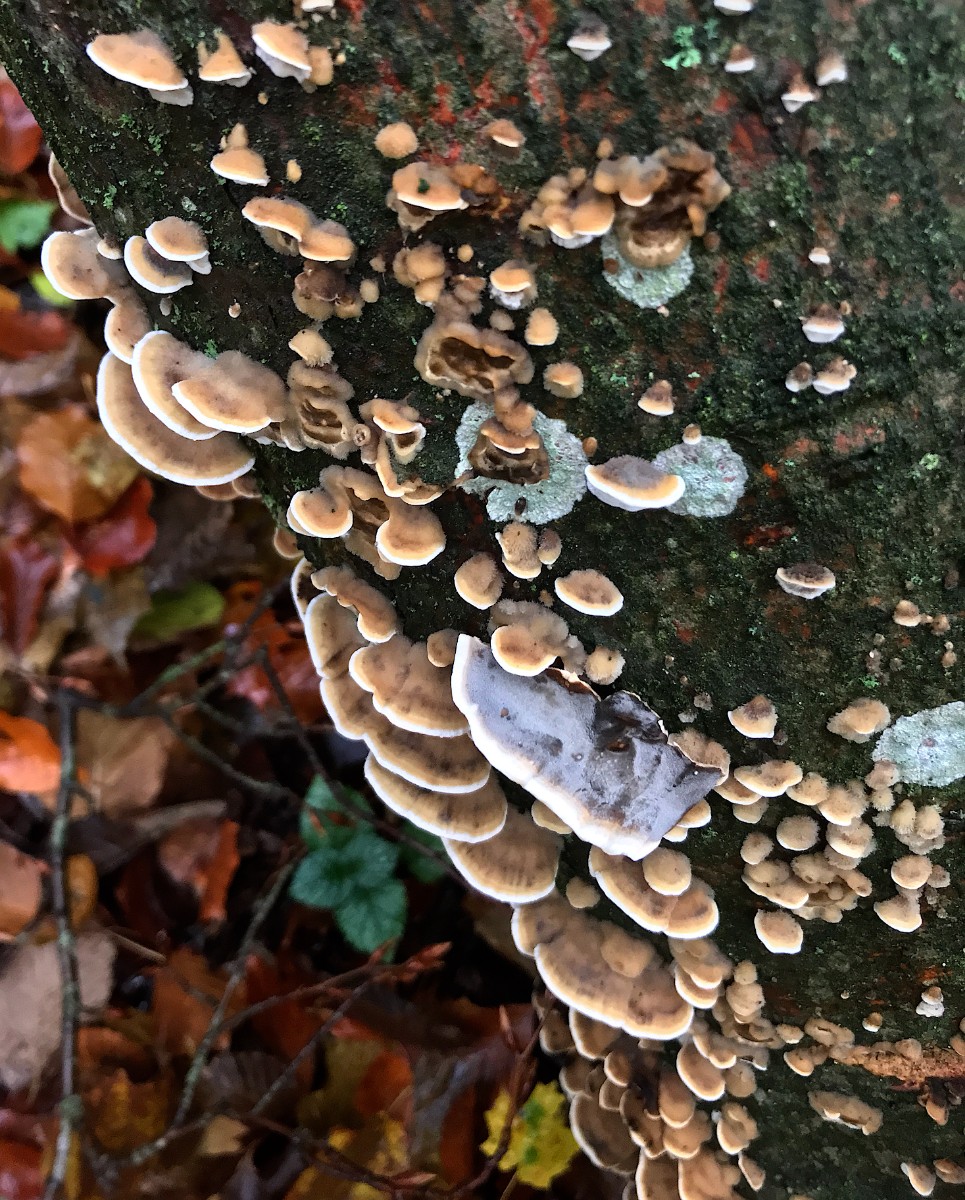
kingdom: Fungi
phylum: Basidiomycota
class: Agaricomycetes
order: Polyporales
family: Phanerochaetaceae
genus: Bjerkandera
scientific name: Bjerkandera adusta
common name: sveden sodporesvamp
